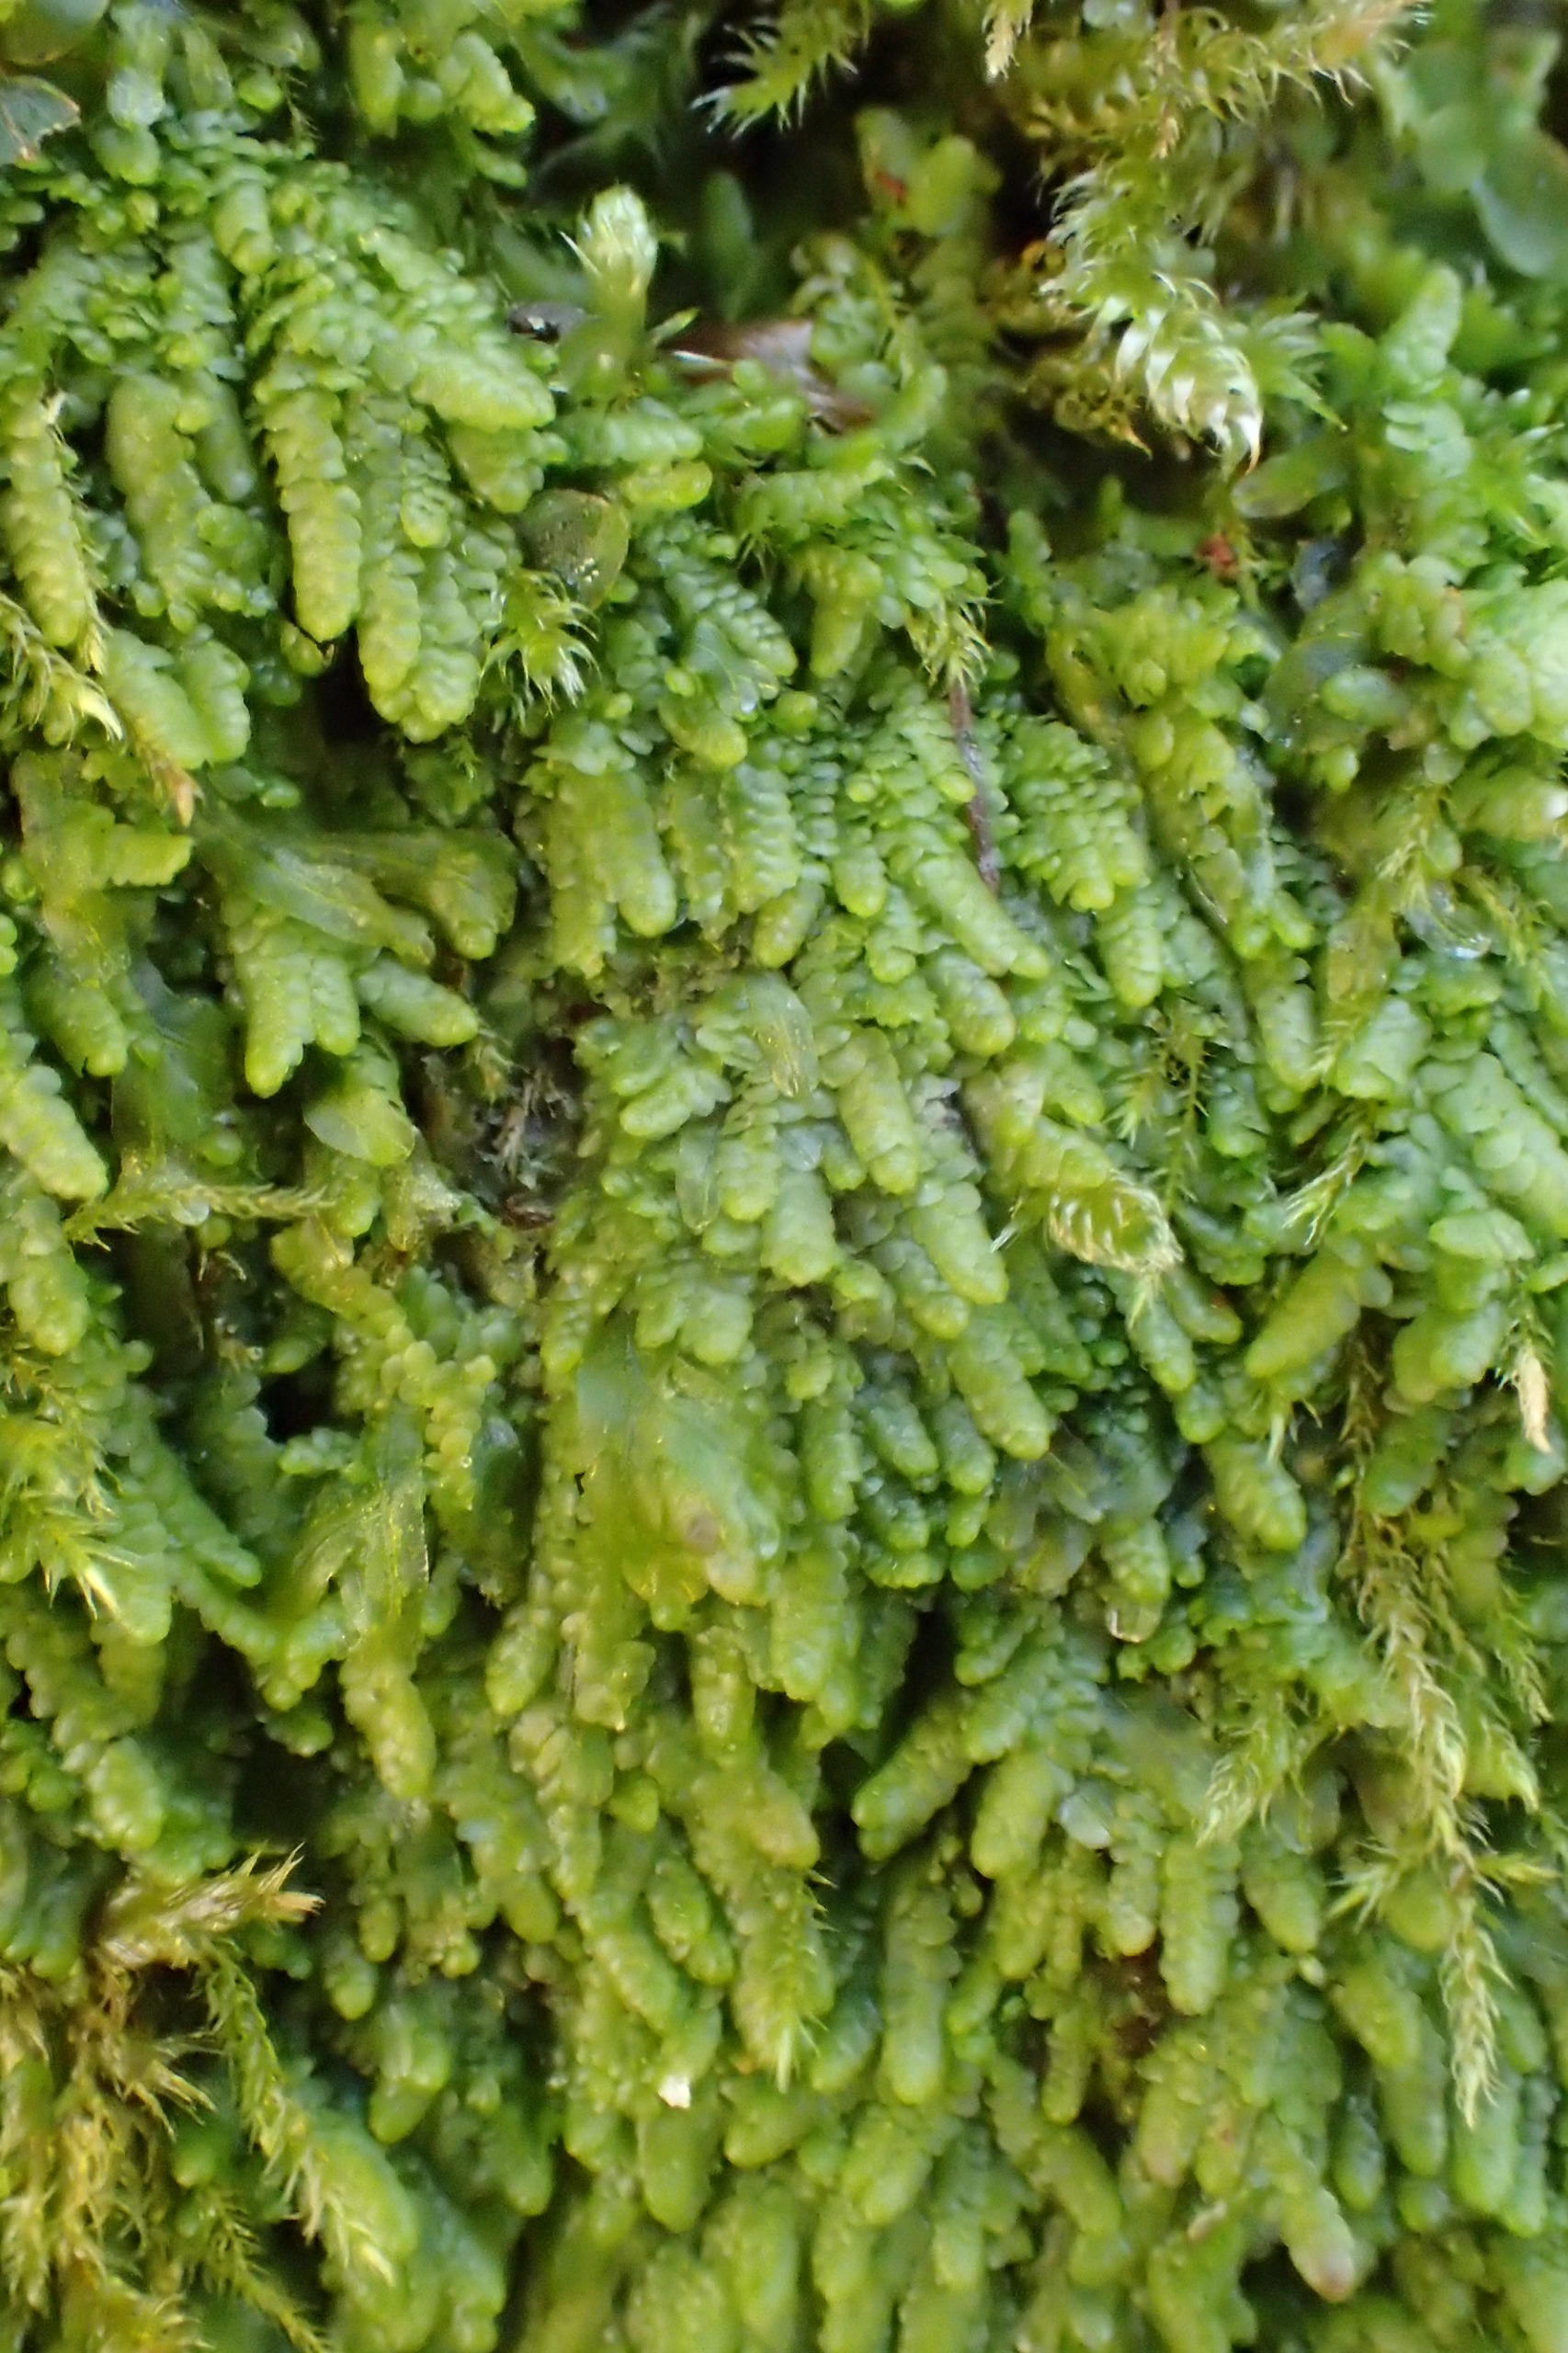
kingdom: Plantae
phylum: Marchantiophyta
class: Jungermanniopsida
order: Porellales
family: Lejeuneaceae
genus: Lejeunea
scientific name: Lejeunea cavifolia
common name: Bæk-skulderbæger
